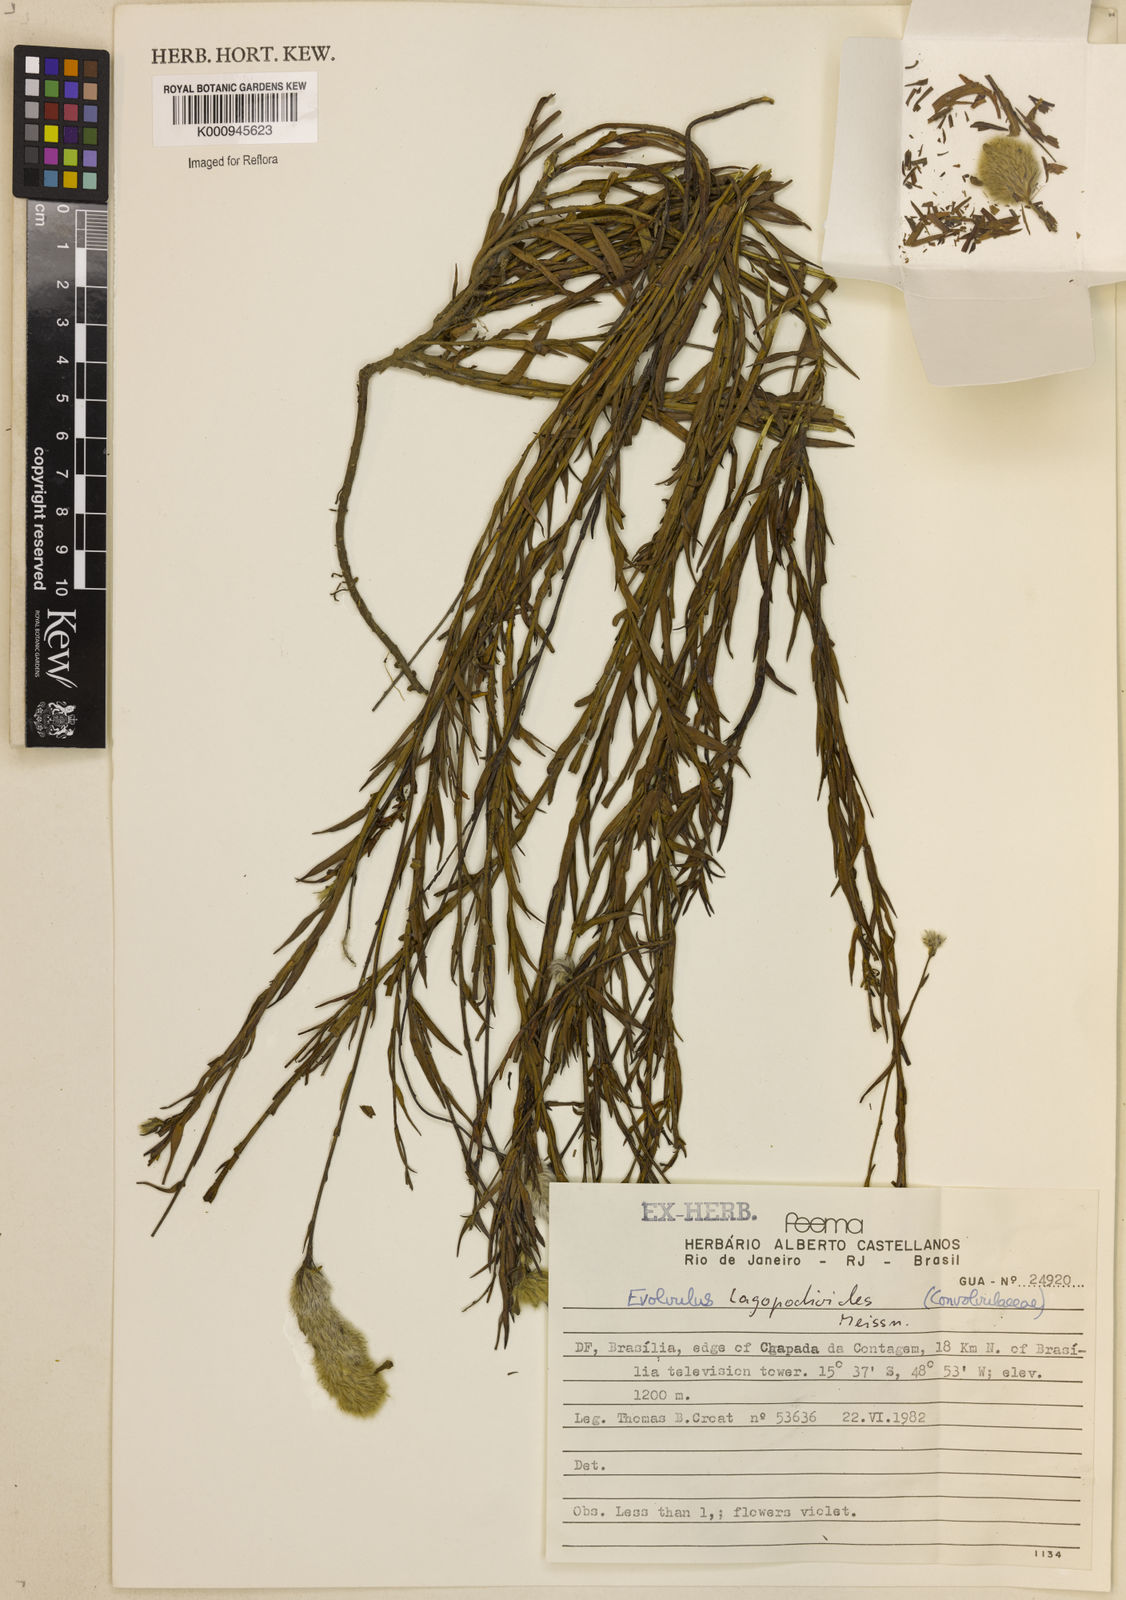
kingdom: Plantae
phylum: Tracheophyta
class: Magnoliopsida
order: Solanales
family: Convolvulaceae
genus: Evolvulus
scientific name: Evolvulus lagopodioides
